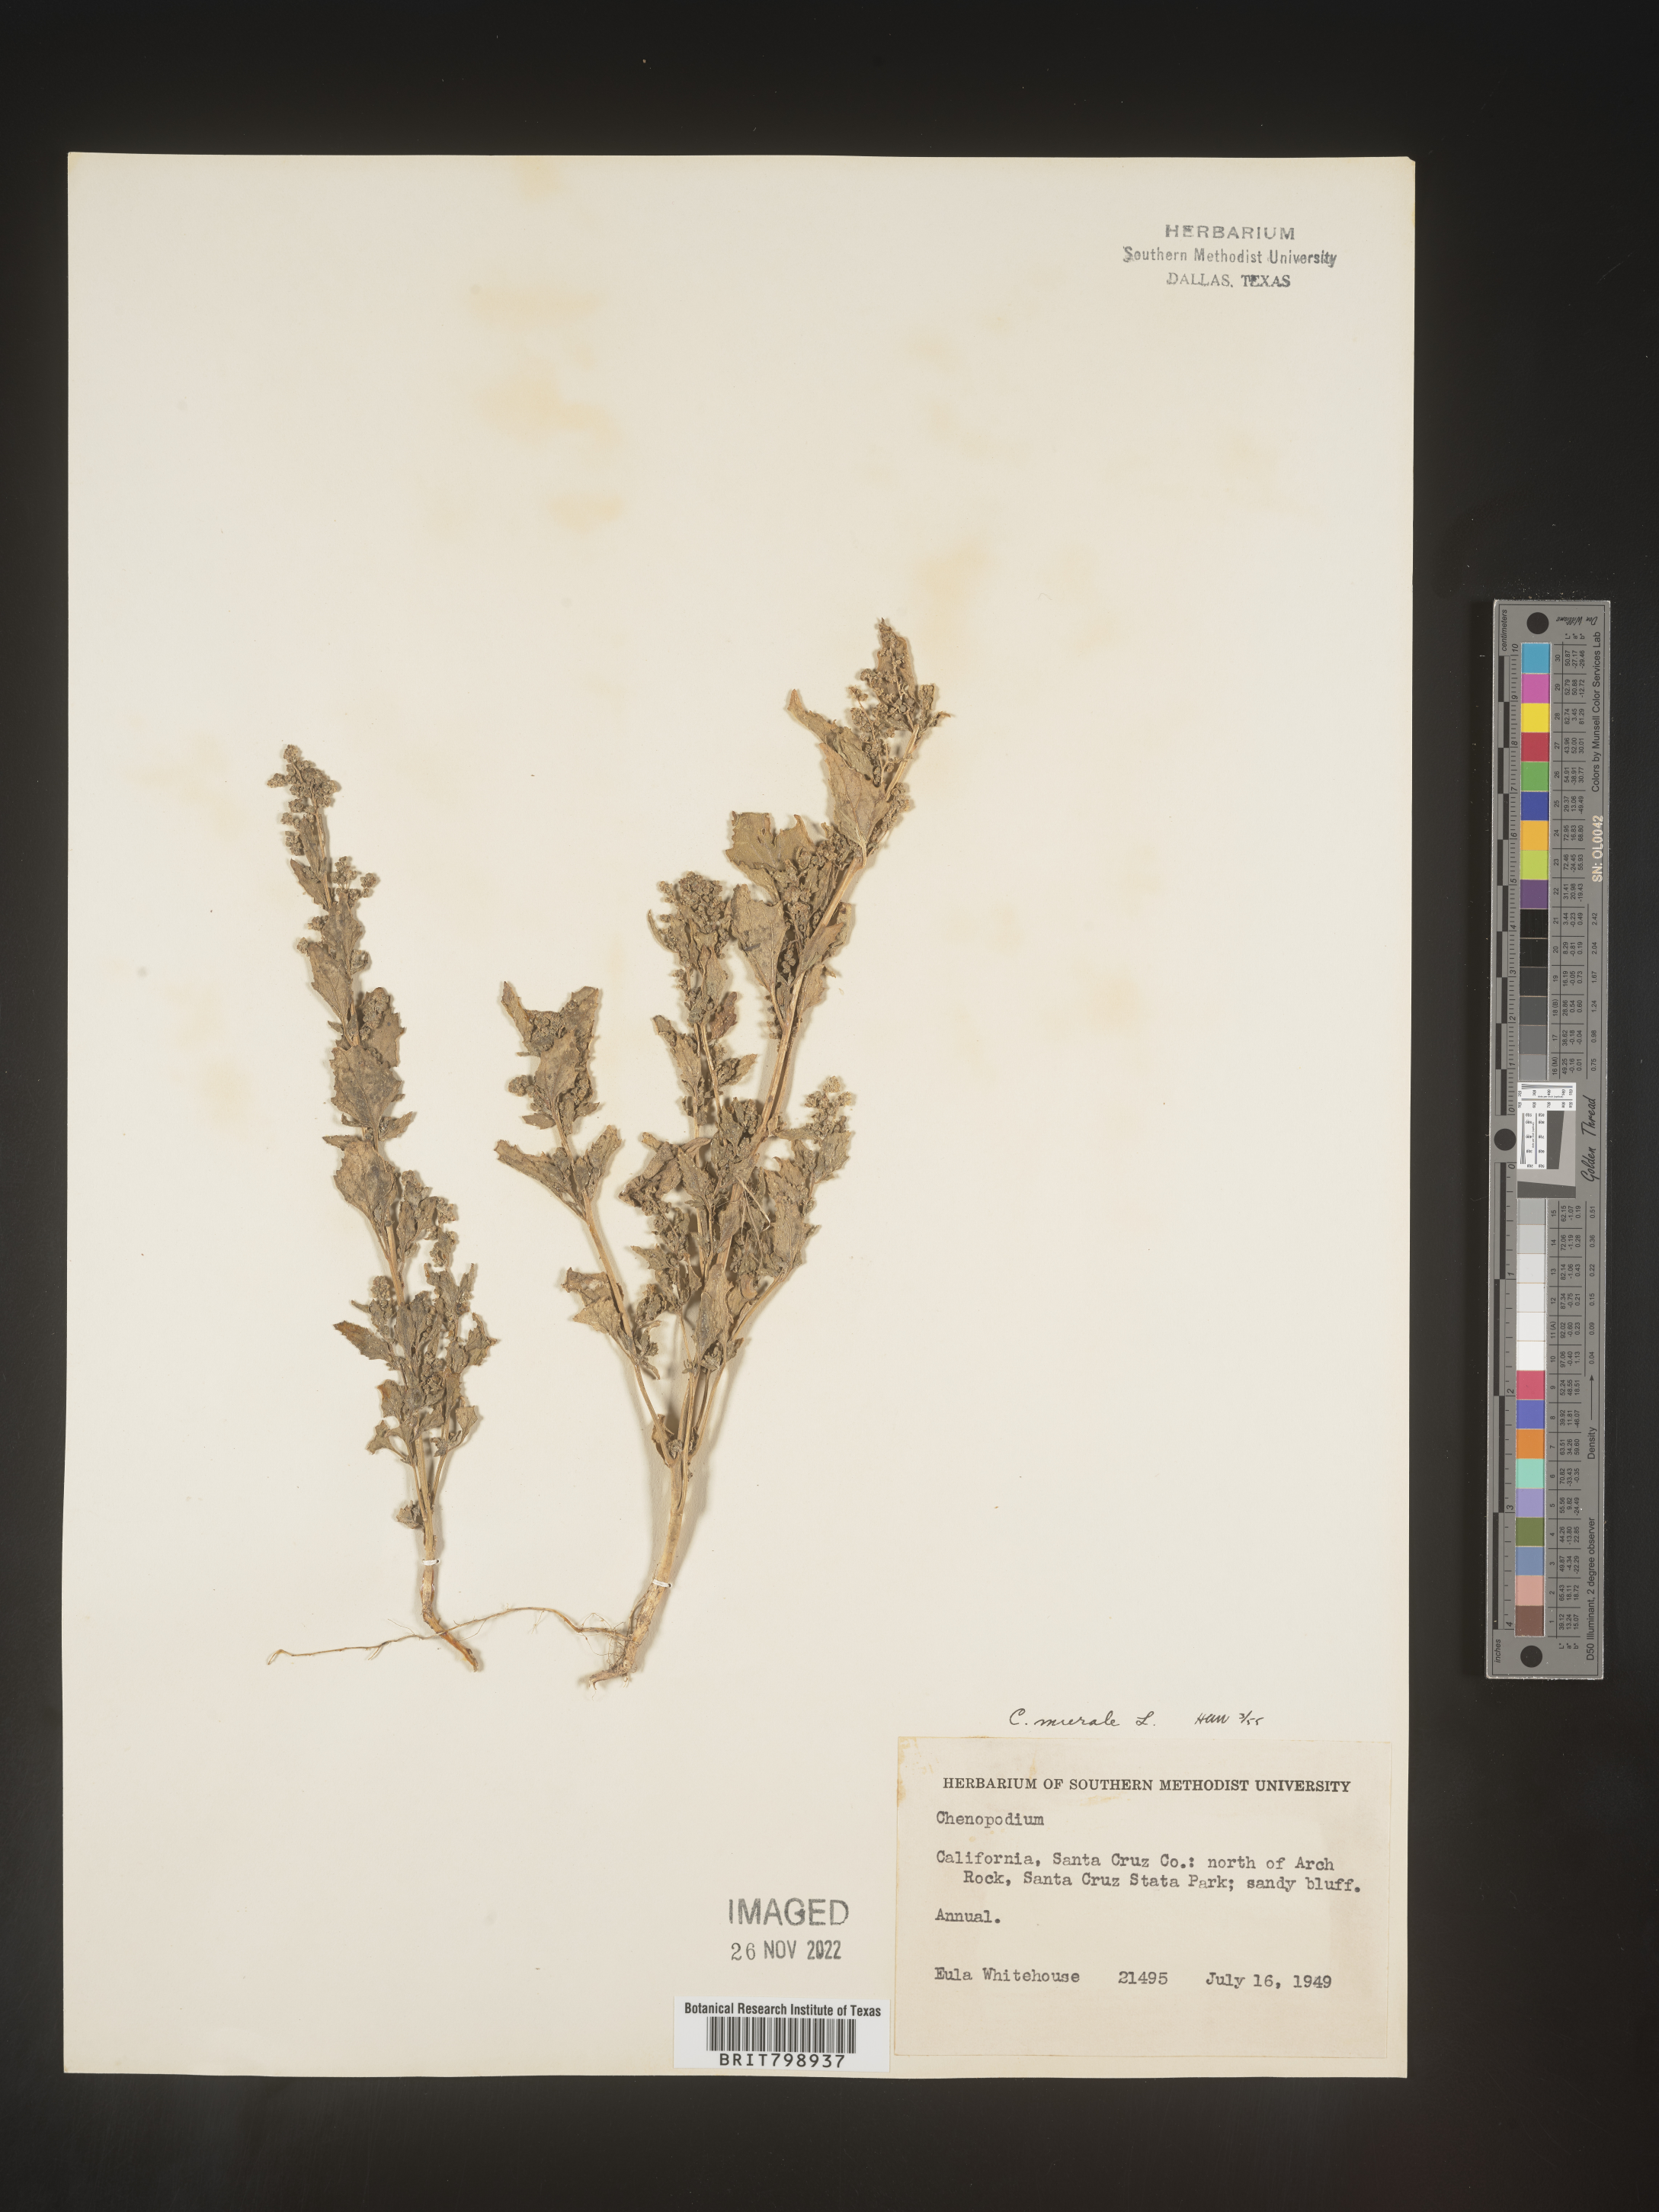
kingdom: Plantae
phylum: Tracheophyta
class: Magnoliopsida
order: Caryophyllales
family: Amaranthaceae
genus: Chenopodiastrum
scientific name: Chenopodiastrum murale
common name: Sowbane
